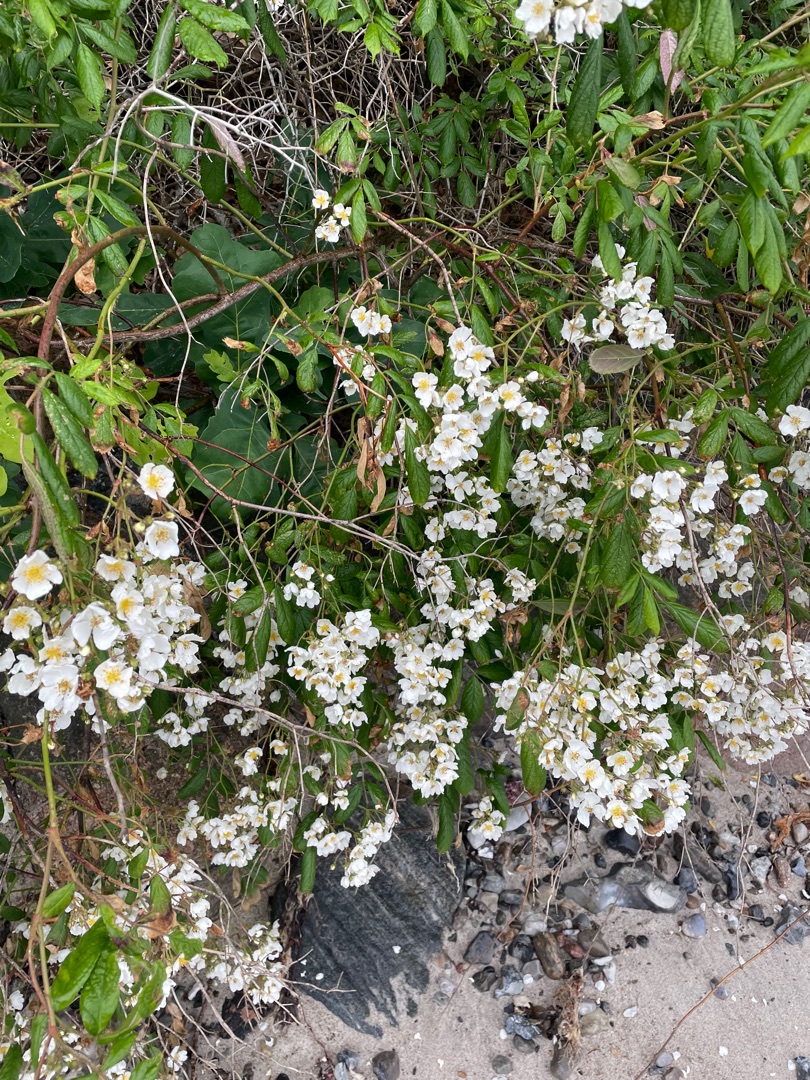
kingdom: Plantae
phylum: Tracheophyta
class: Magnoliopsida
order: Rosales
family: Rosaceae
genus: Rosa
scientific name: Rosa multiflora
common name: Mangeblomstret rose
